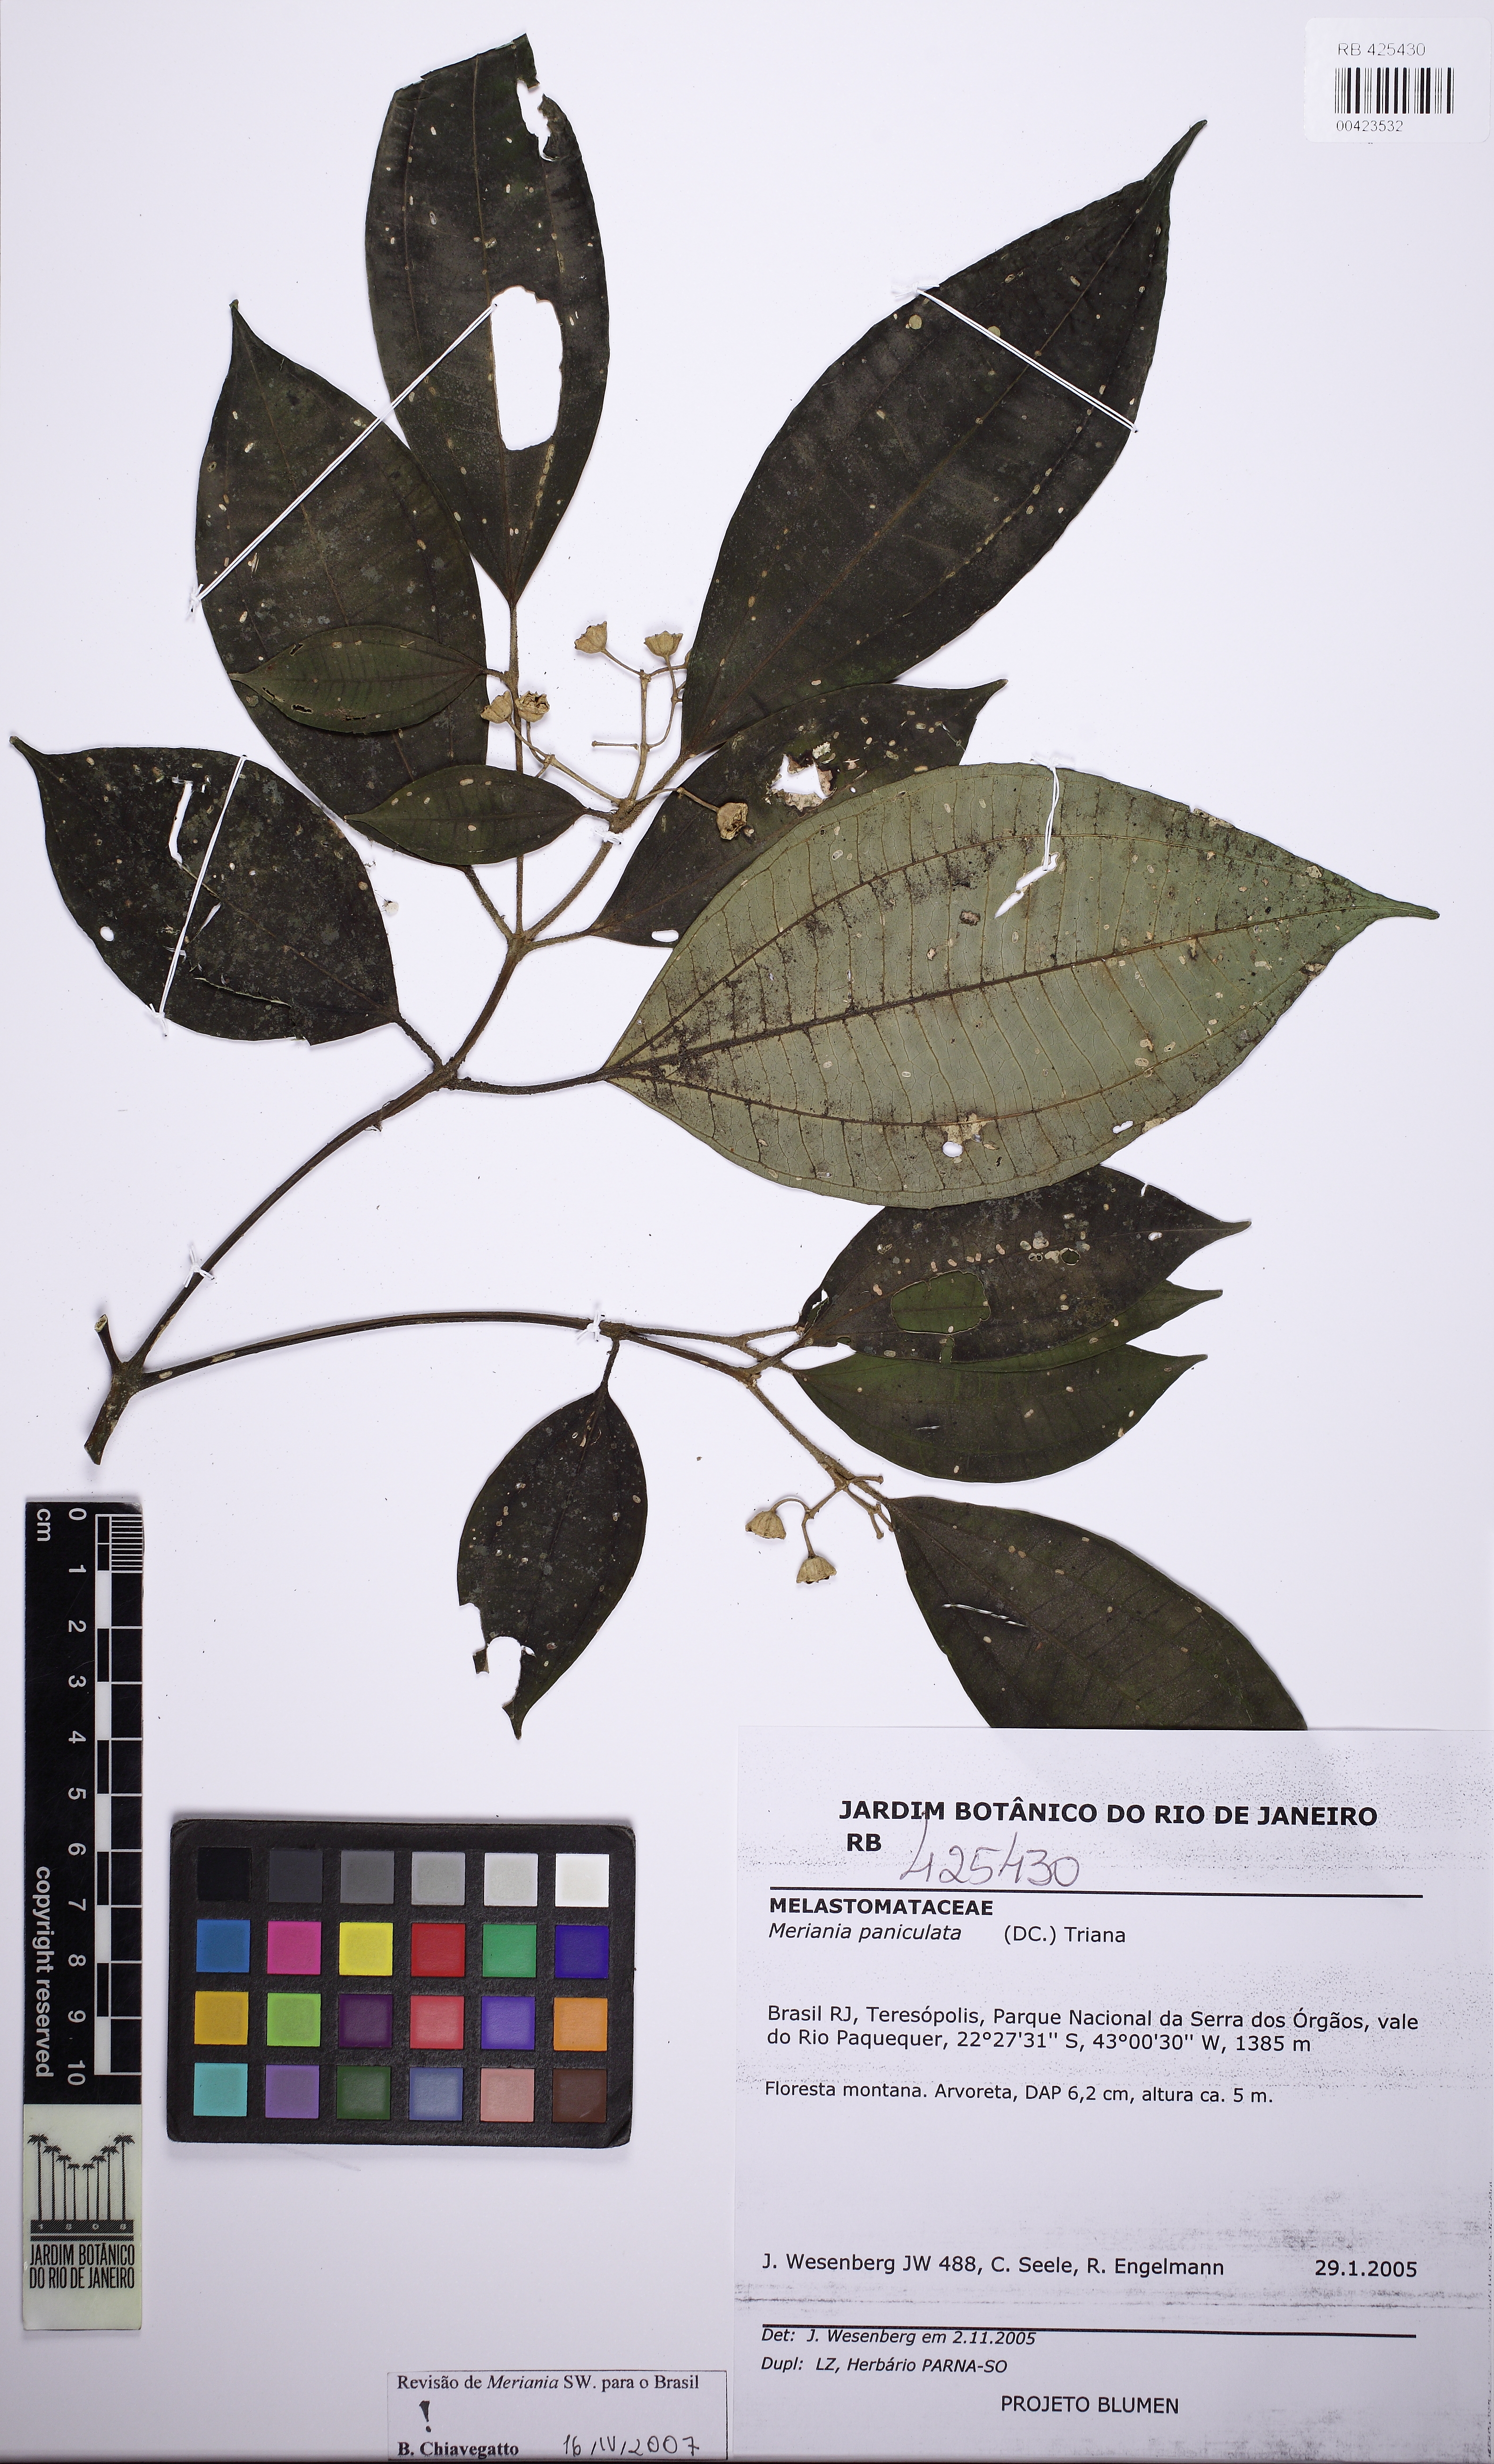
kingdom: Plantae
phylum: Tracheophyta
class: Magnoliopsida
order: Myrtales
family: Melastomataceae
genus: Meriania
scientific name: Meriania paniculata
